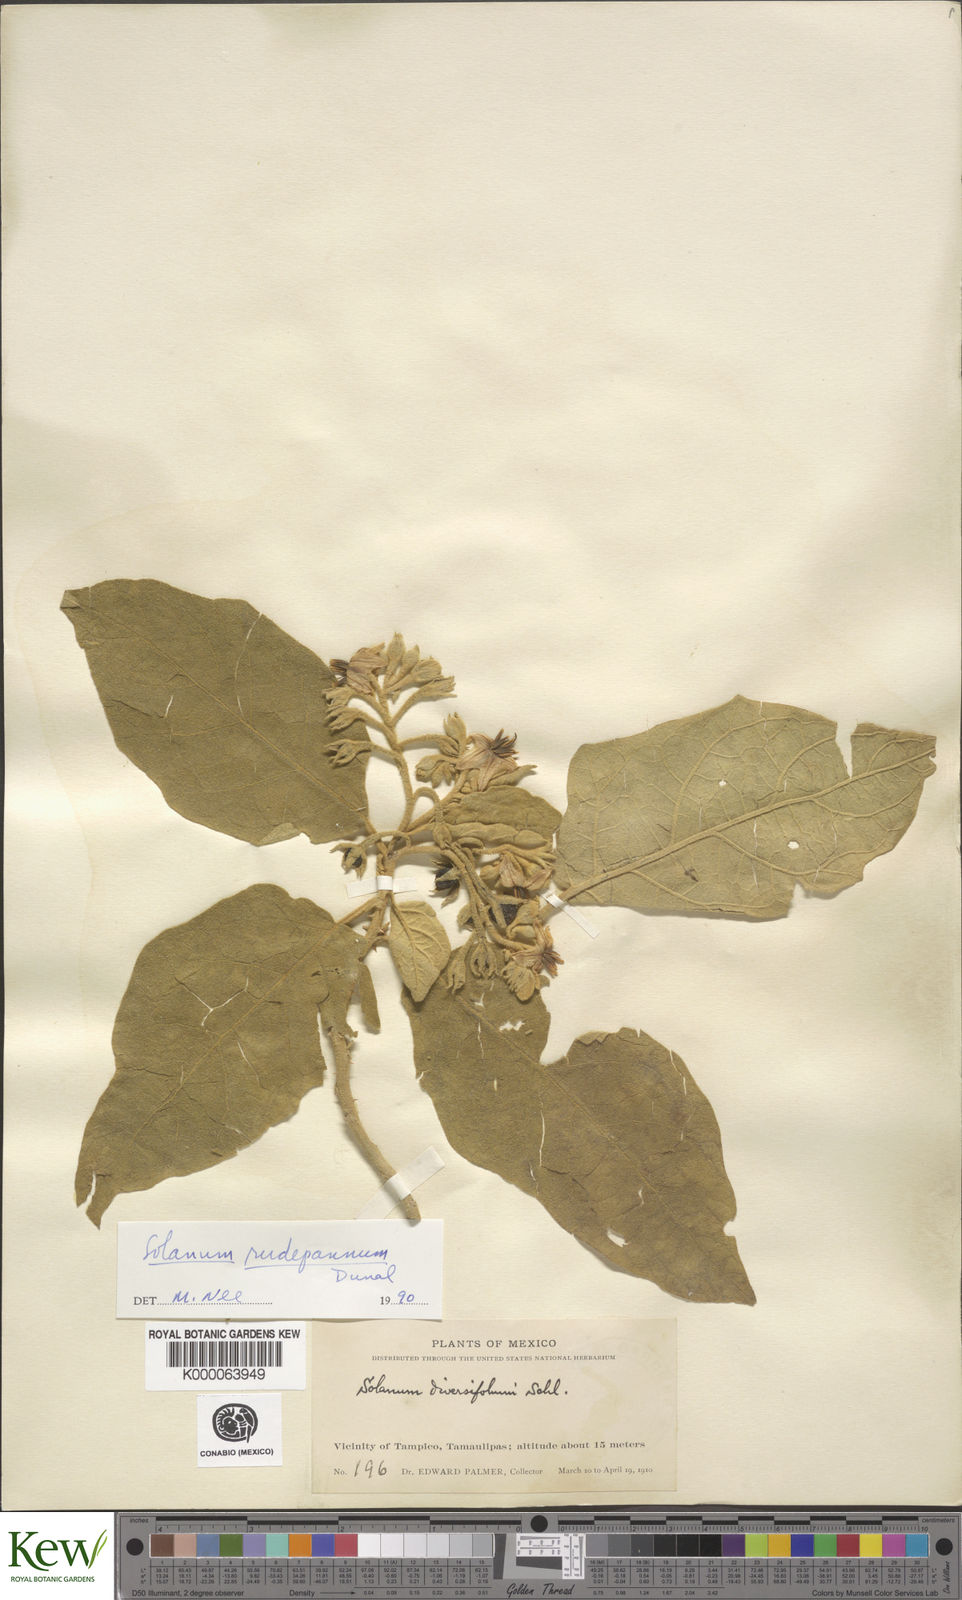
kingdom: Plantae
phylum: Tracheophyta
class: Magnoliopsida
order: Solanales
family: Solanaceae
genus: Solanum
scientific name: Solanum rude-pannum
